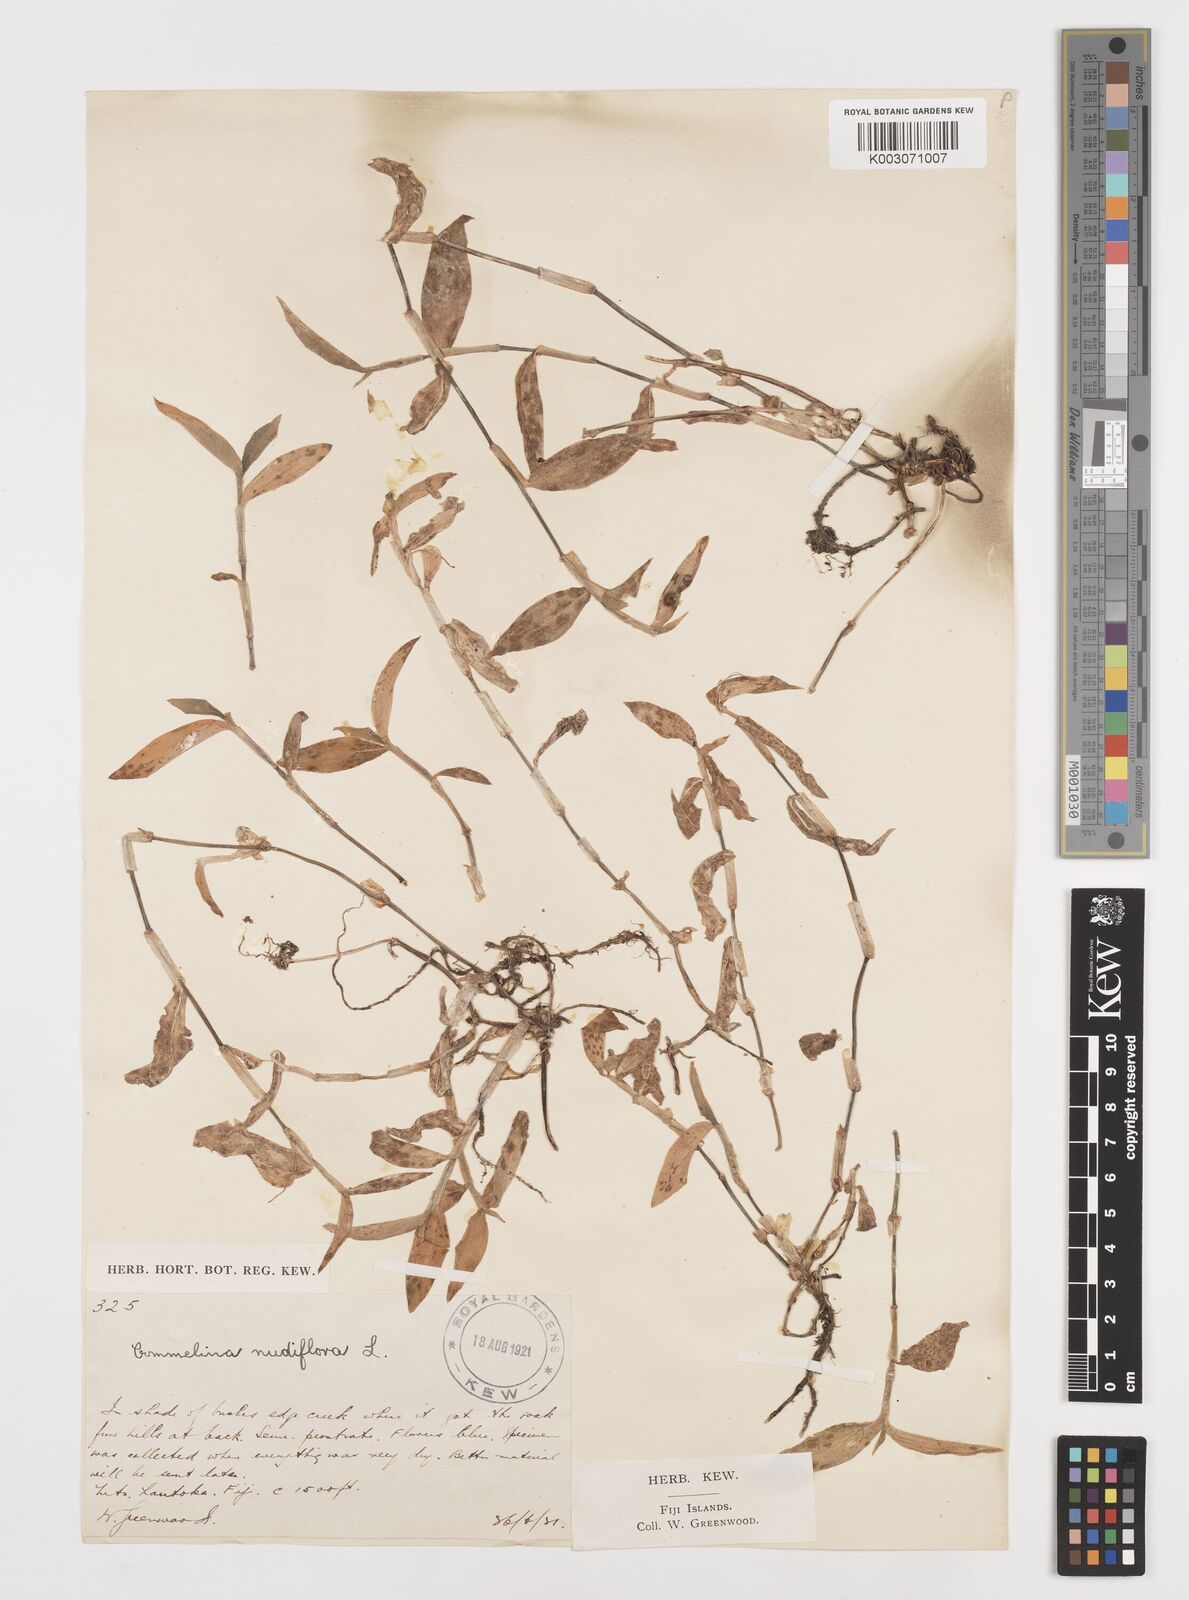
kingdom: Plantae
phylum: Tracheophyta
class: Liliopsida
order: Commelinales
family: Commelinaceae
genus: Commelina
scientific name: Commelina diffusa
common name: Climbing dayflower
